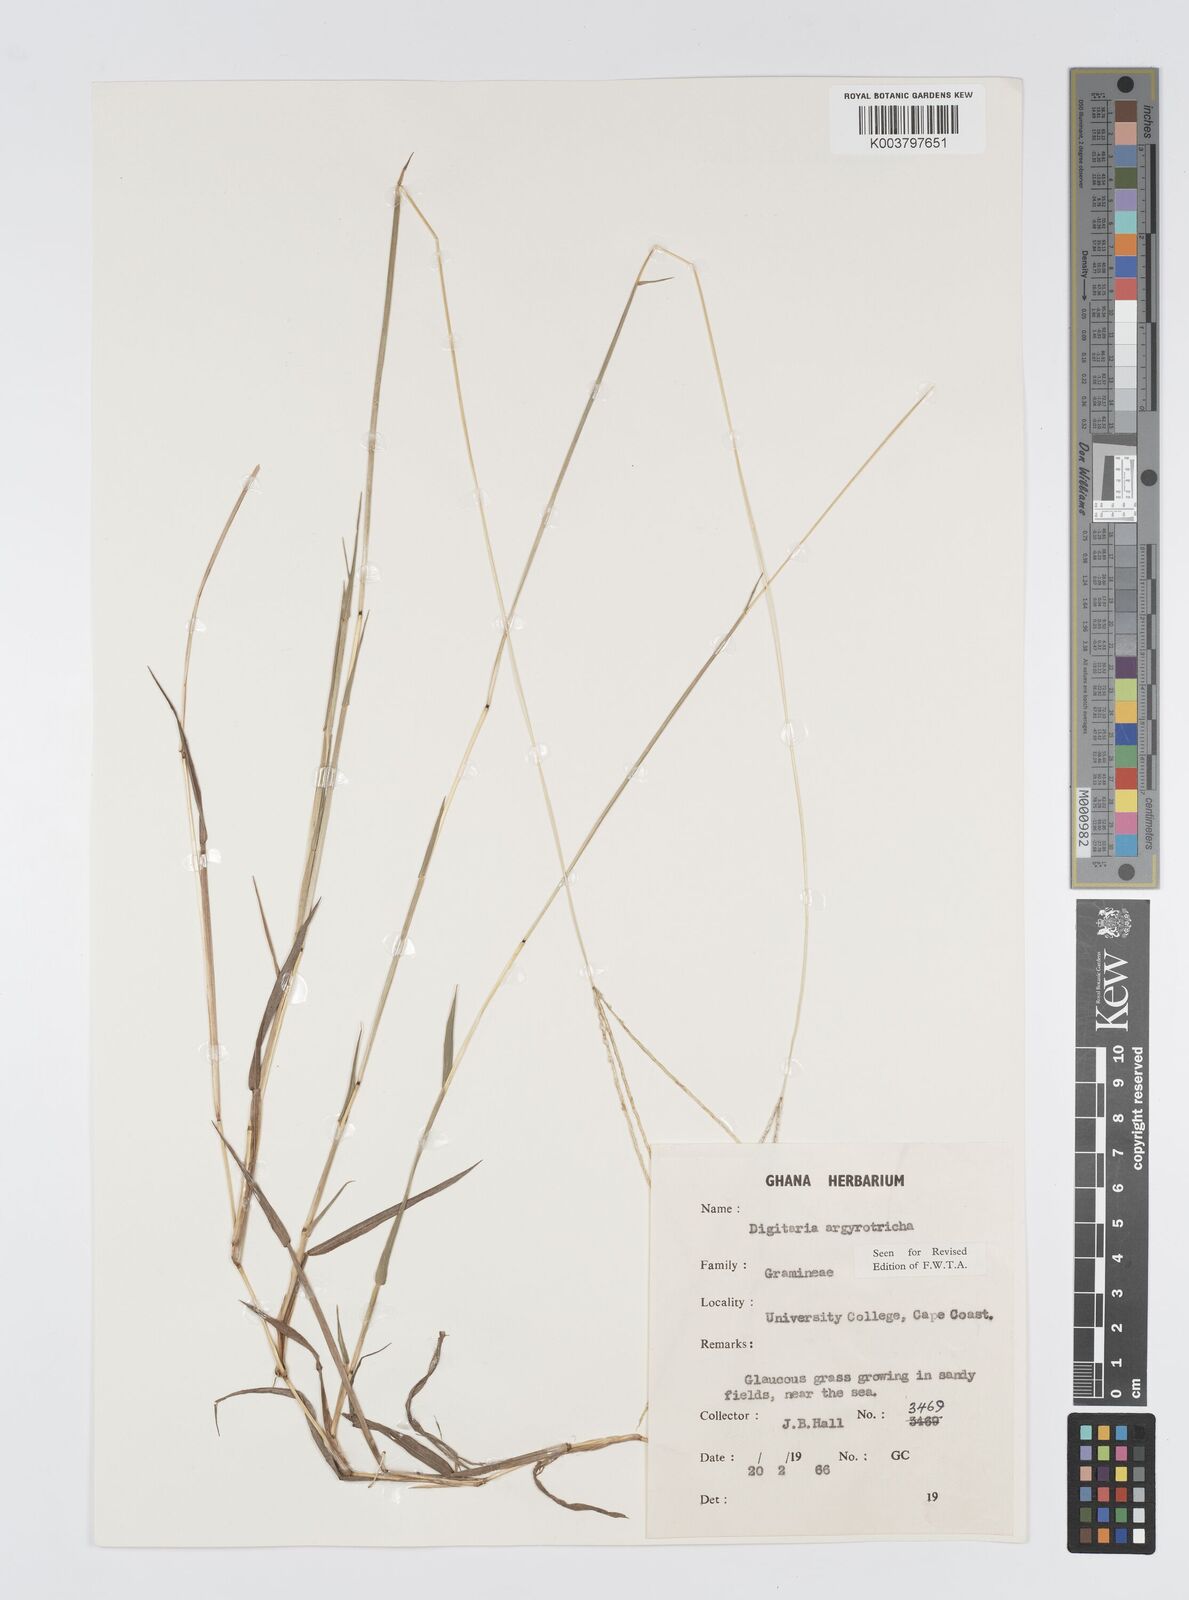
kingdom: Plantae
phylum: Tracheophyta
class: Liliopsida
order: Poales
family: Poaceae
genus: Digitaria
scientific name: Digitaria argyrotricha
